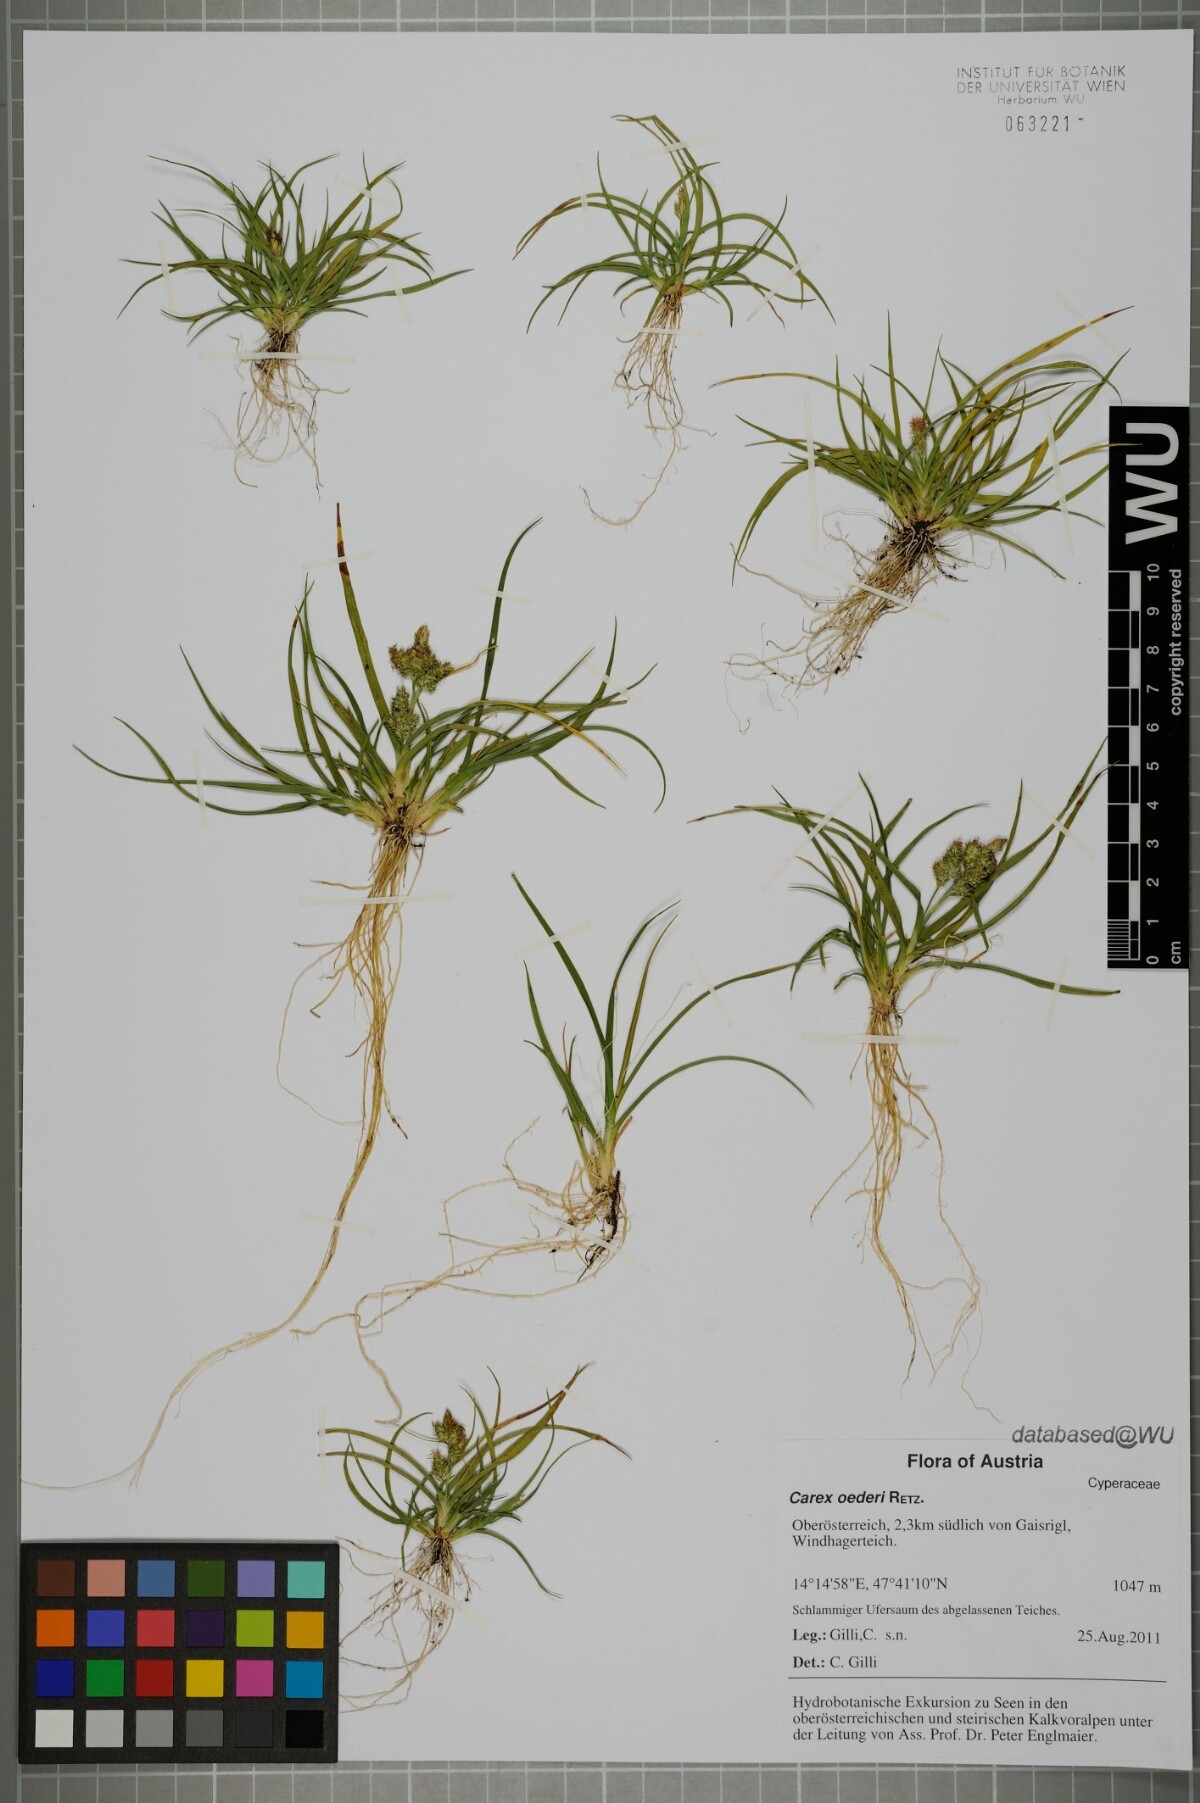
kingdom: Plantae
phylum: Tracheophyta
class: Liliopsida
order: Poales
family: Cyperaceae
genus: Carex
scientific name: Carex oederi
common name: Common & small-fruited yellow-sedge
